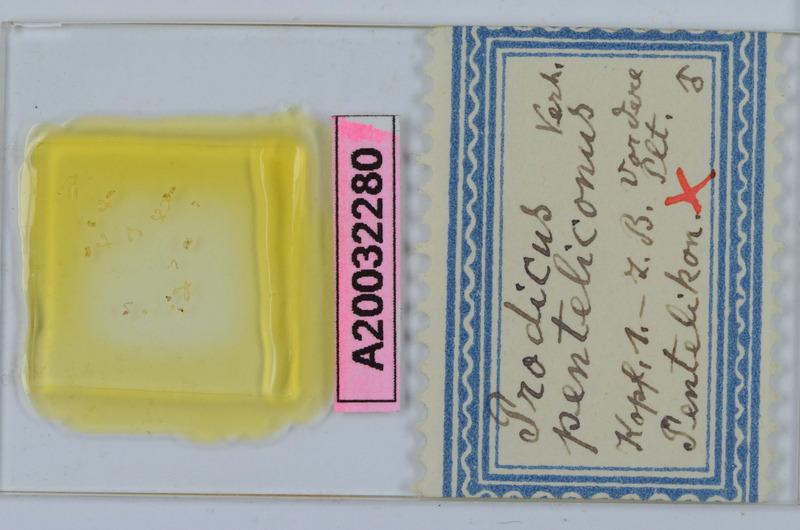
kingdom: Animalia
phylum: Arthropoda
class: Diplopoda
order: Chordeumatida
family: Anthroleucosomatidae
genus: Anamastigona
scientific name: Anamastigona pentelicona
